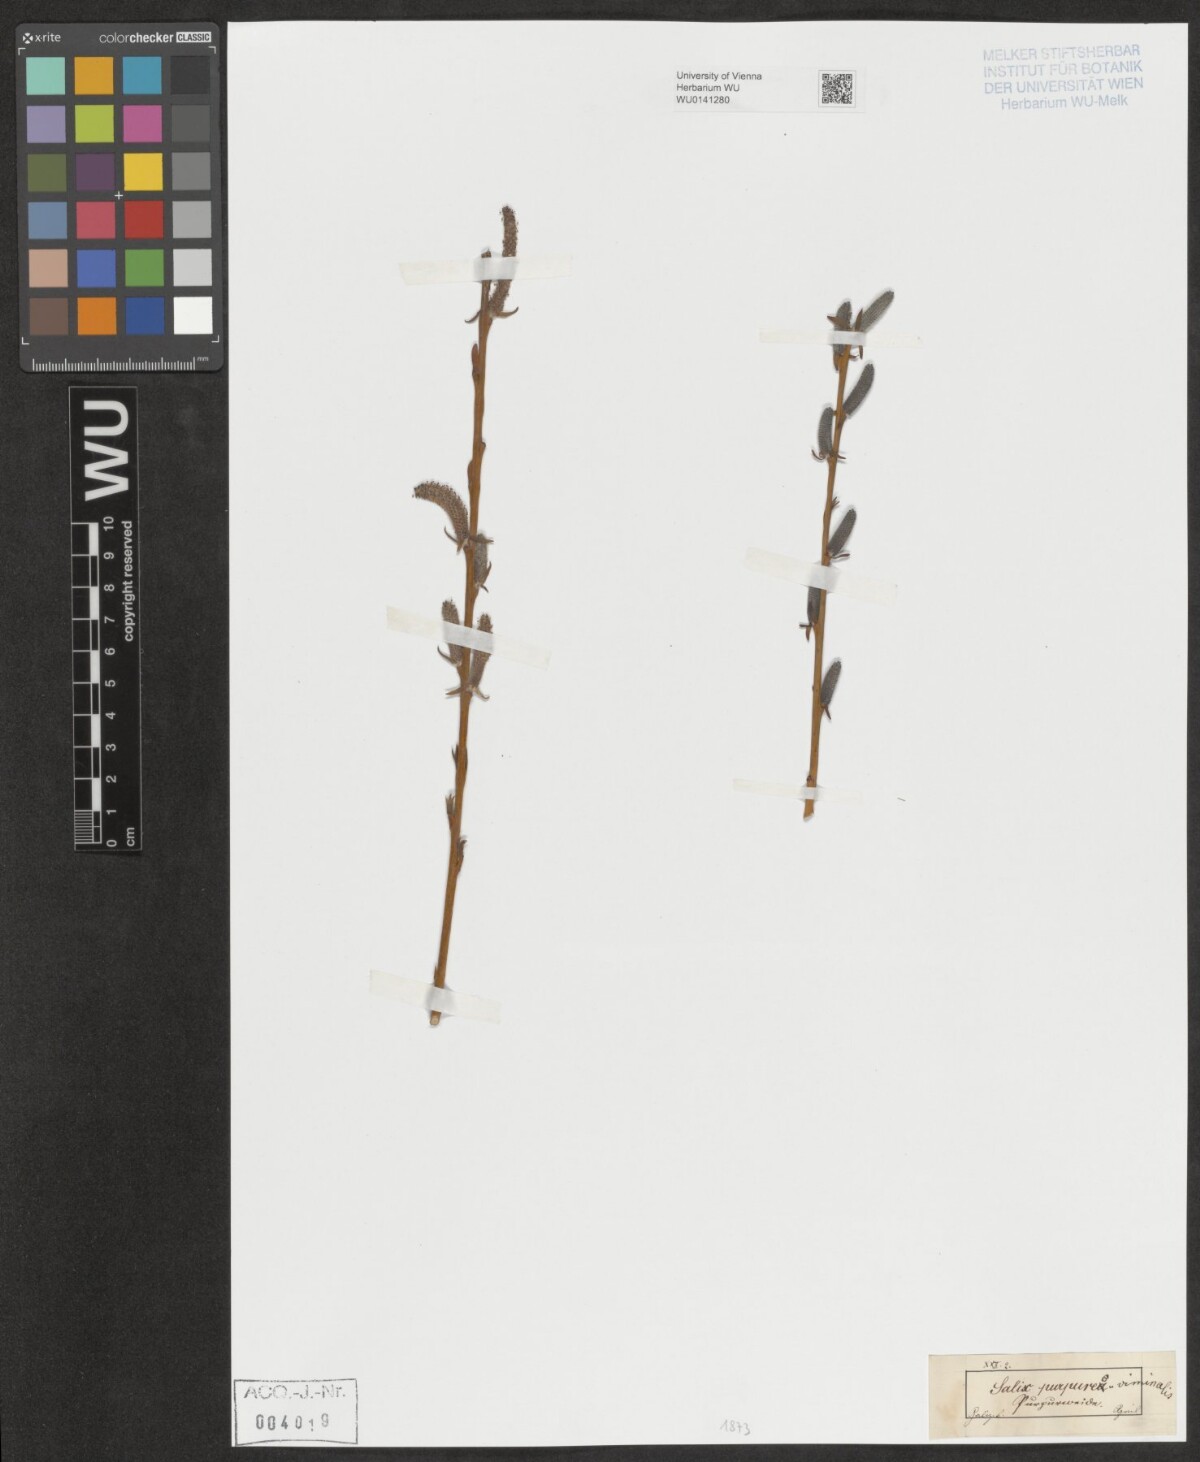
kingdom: Plantae
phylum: Tracheophyta
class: Magnoliopsida
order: Malpighiales
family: Salicaceae
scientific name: Salicaceae
